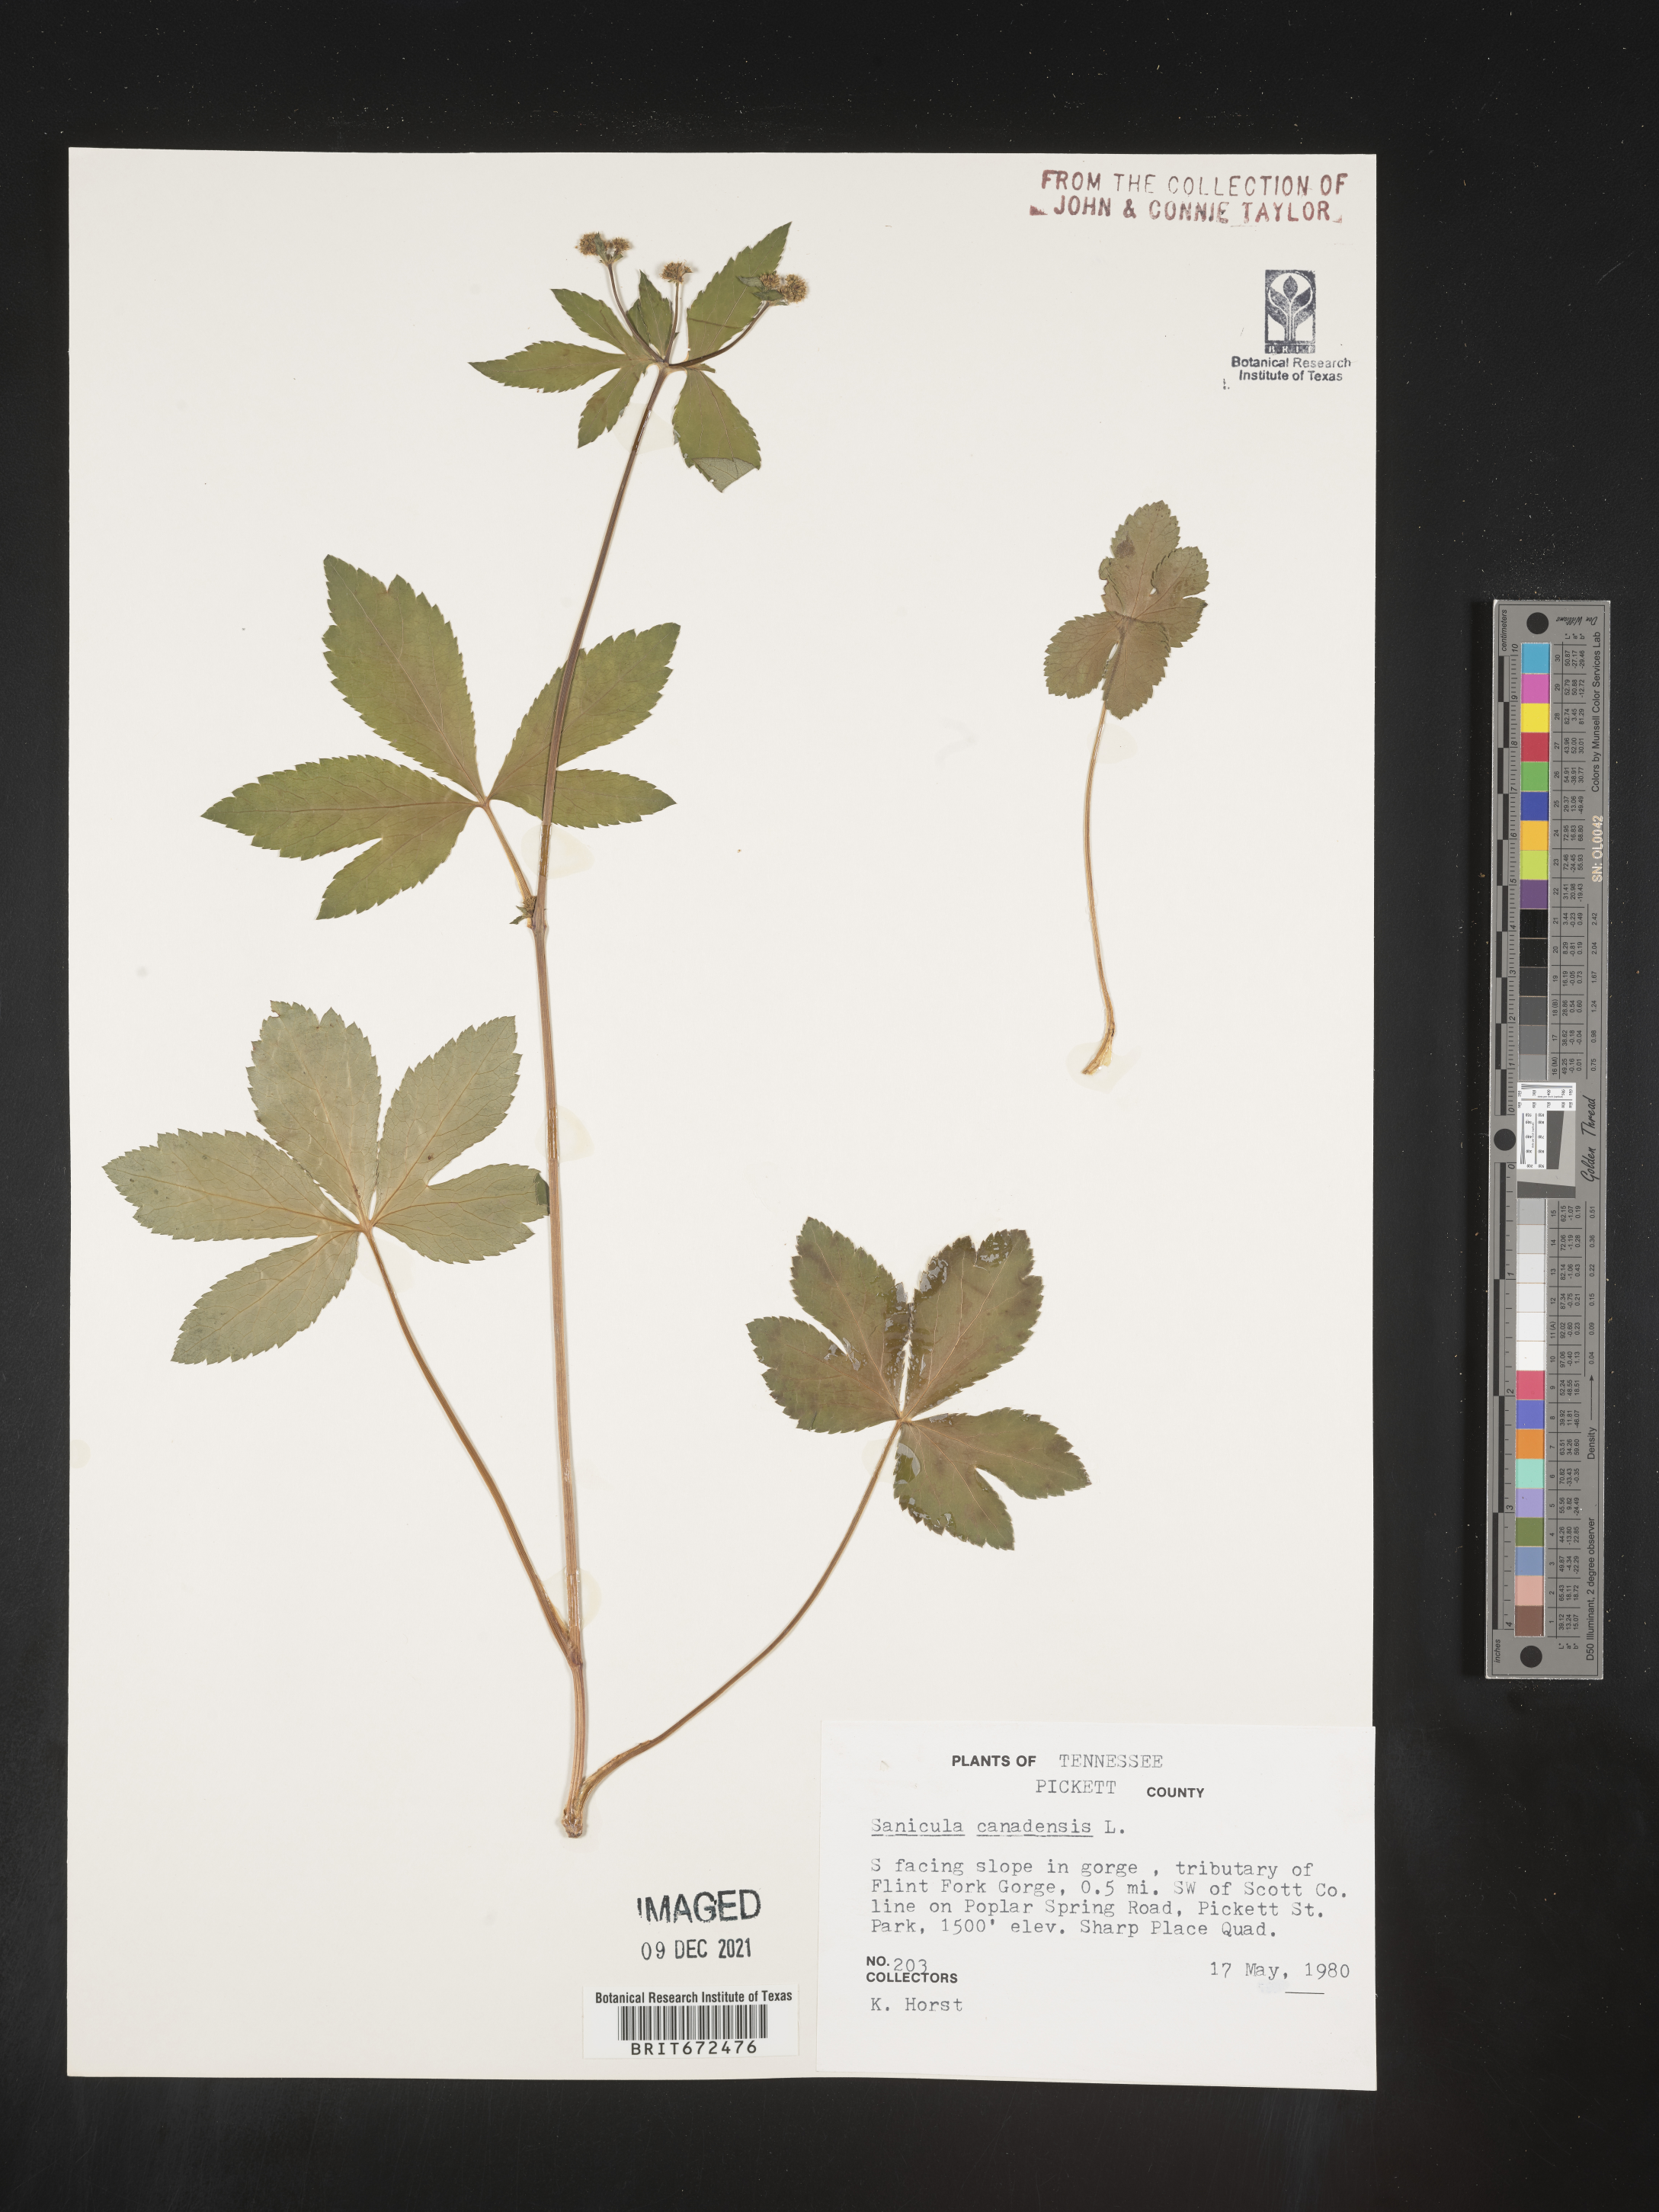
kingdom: Plantae
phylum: Tracheophyta
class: Magnoliopsida
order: Apiales
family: Apiaceae
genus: Sanicula
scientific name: Sanicula canadensis
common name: Canada sanicle
